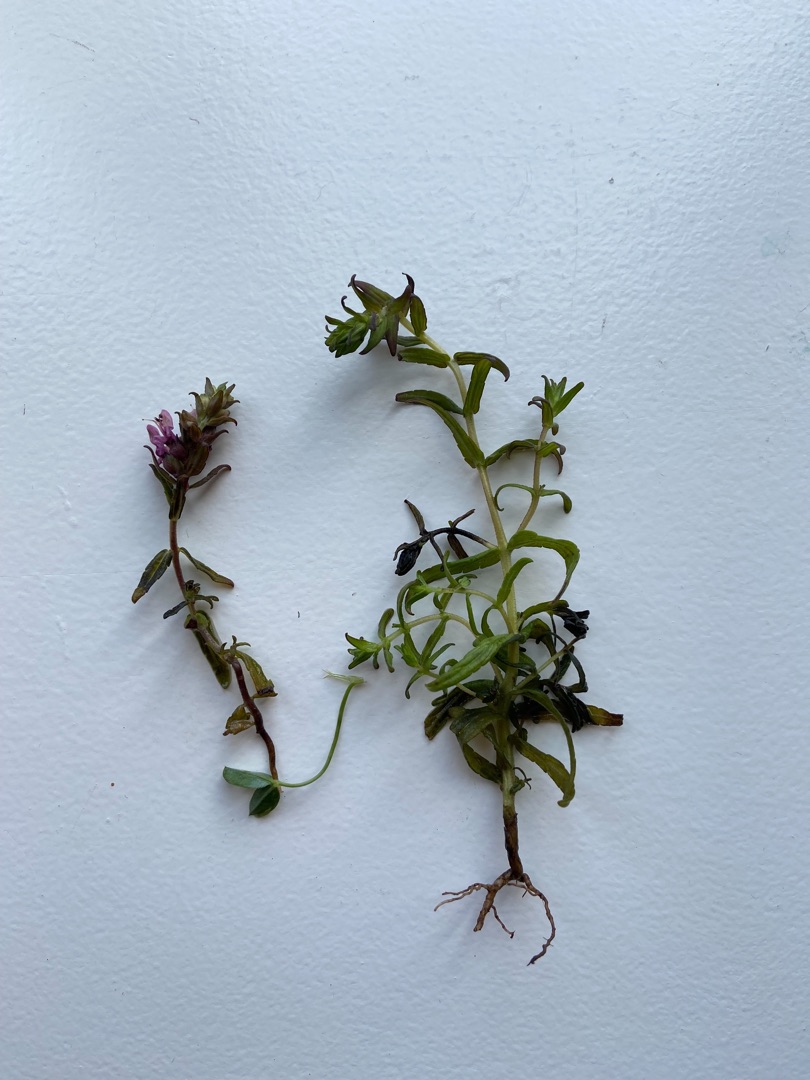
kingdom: Plantae
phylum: Tracheophyta
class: Magnoliopsida
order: Lamiales
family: Orobanchaceae
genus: Odontites
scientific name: Odontites vulgaris
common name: Høst-rødtop
